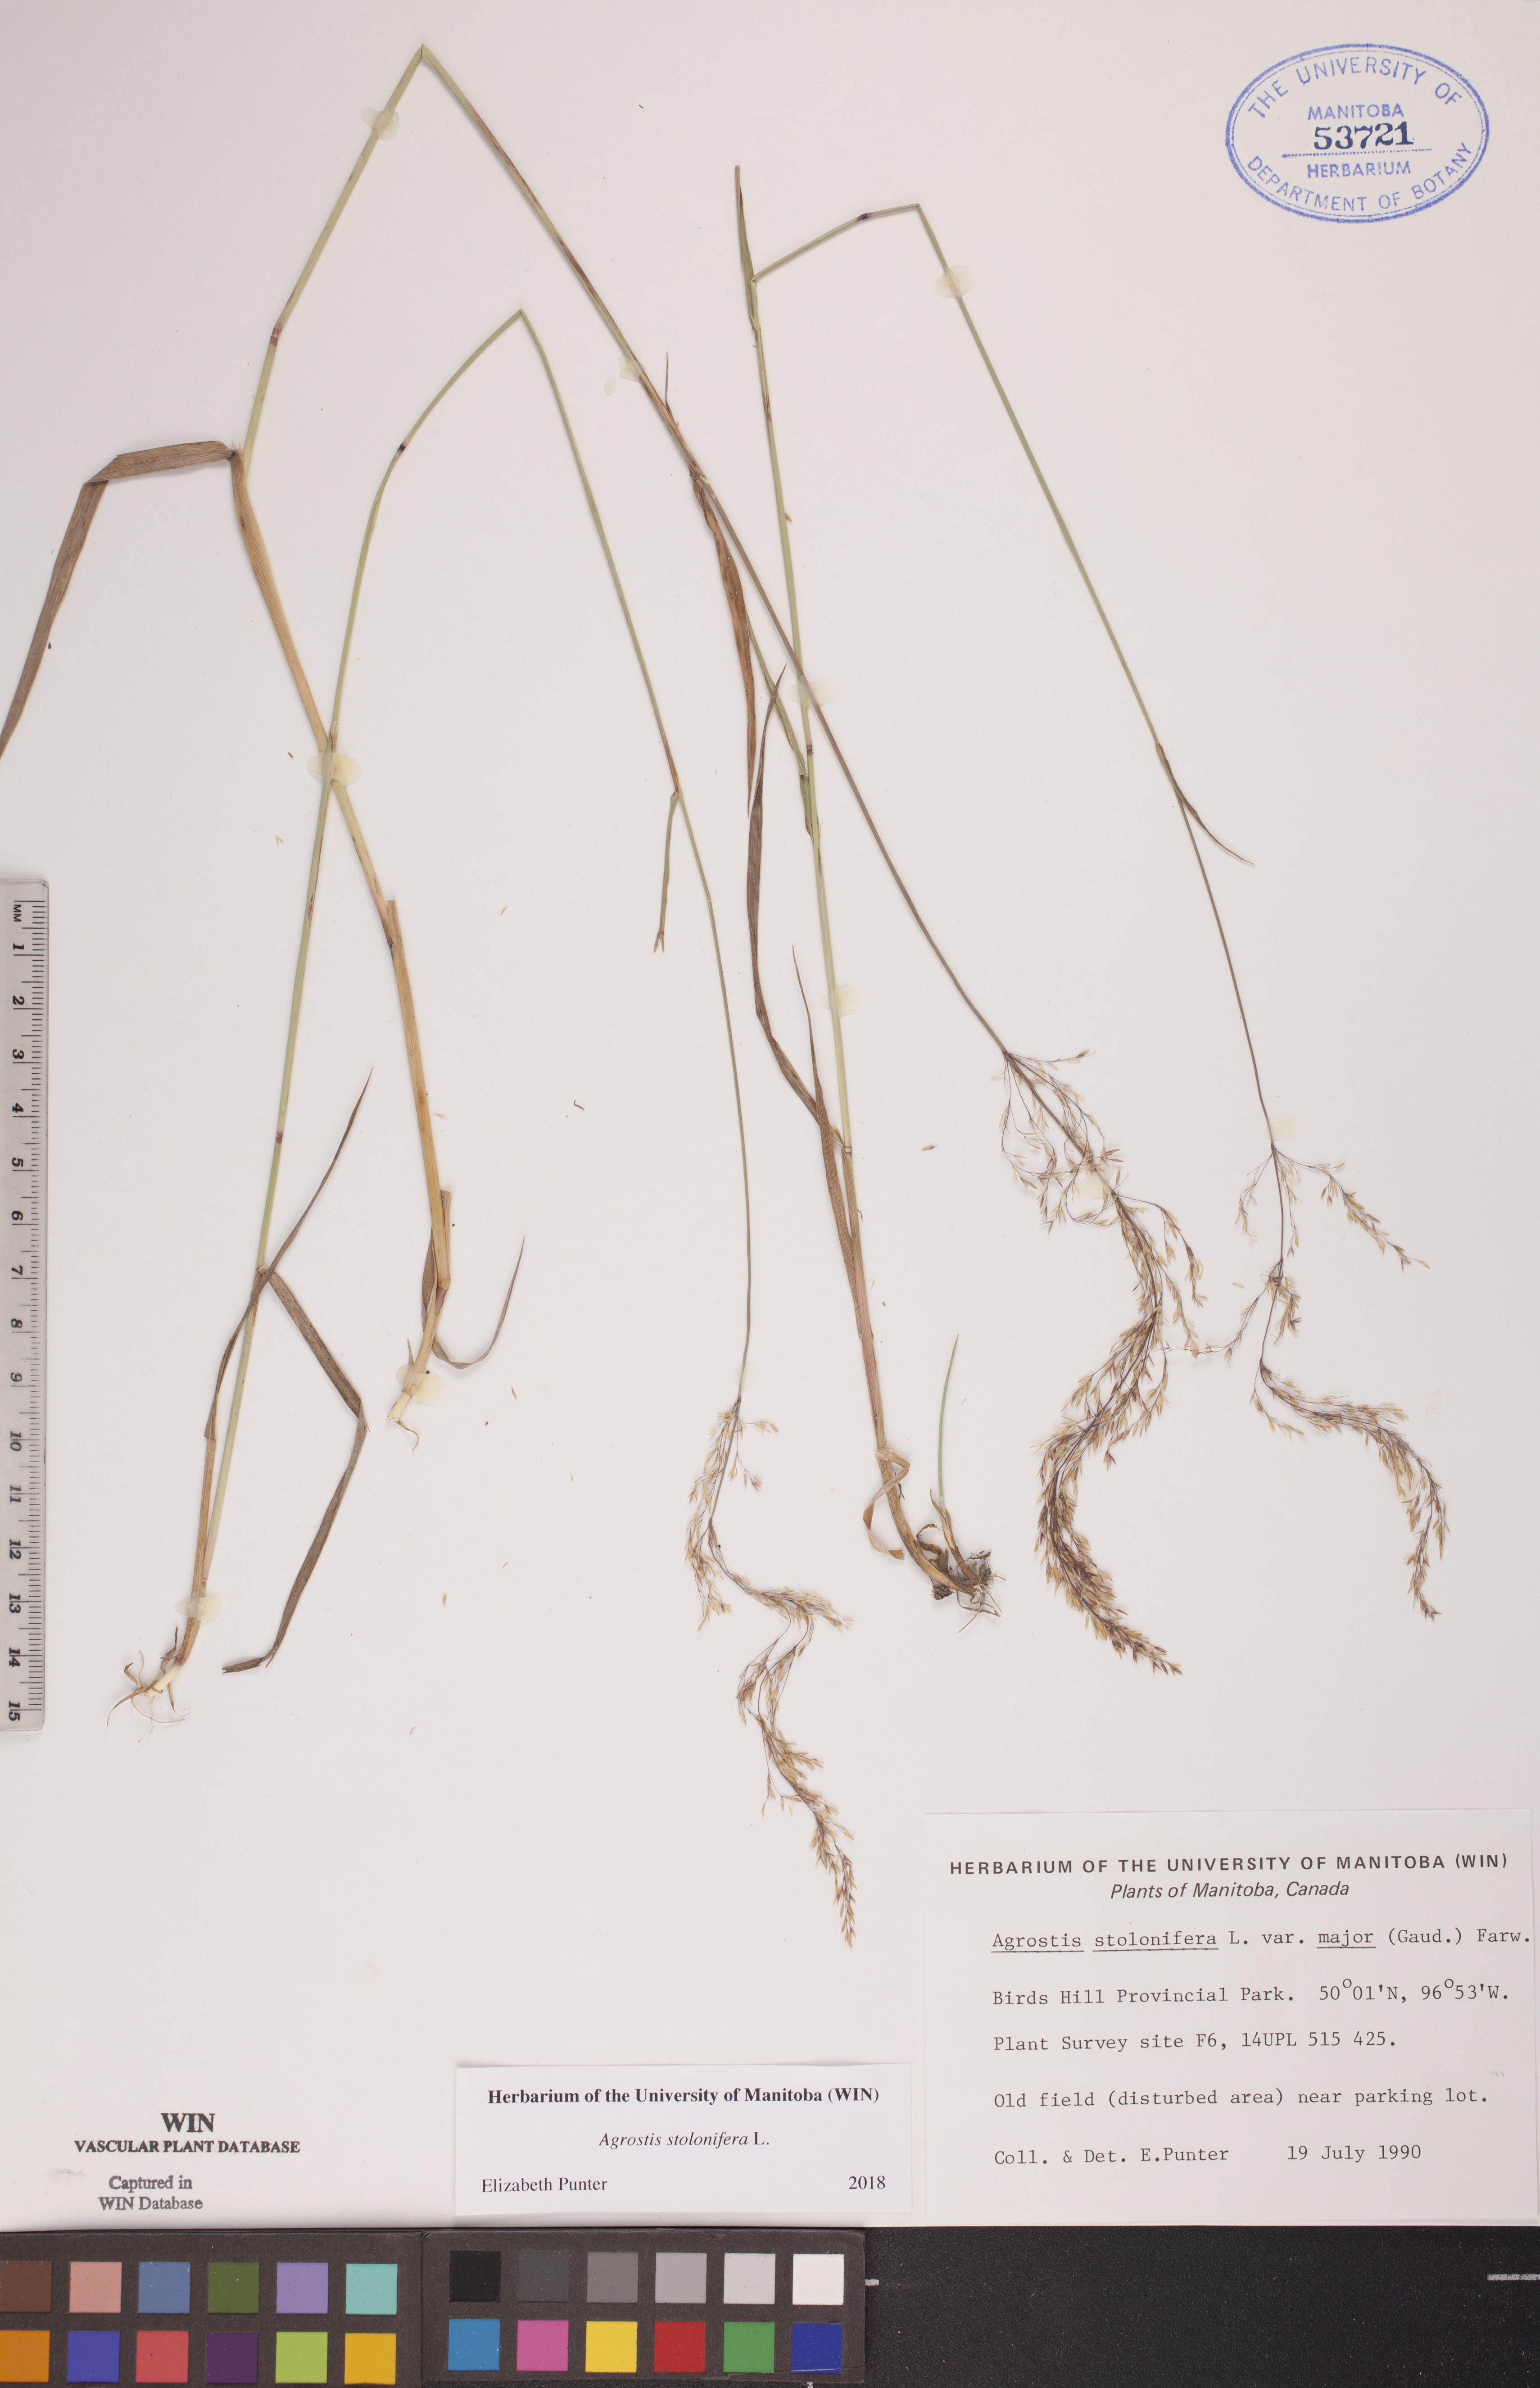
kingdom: Plantae
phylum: Tracheophyta
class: Liliopsida
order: Poales
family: Poaceae
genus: Agrostis
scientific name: Agrostis stolonifera
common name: Creeping bentgrass
